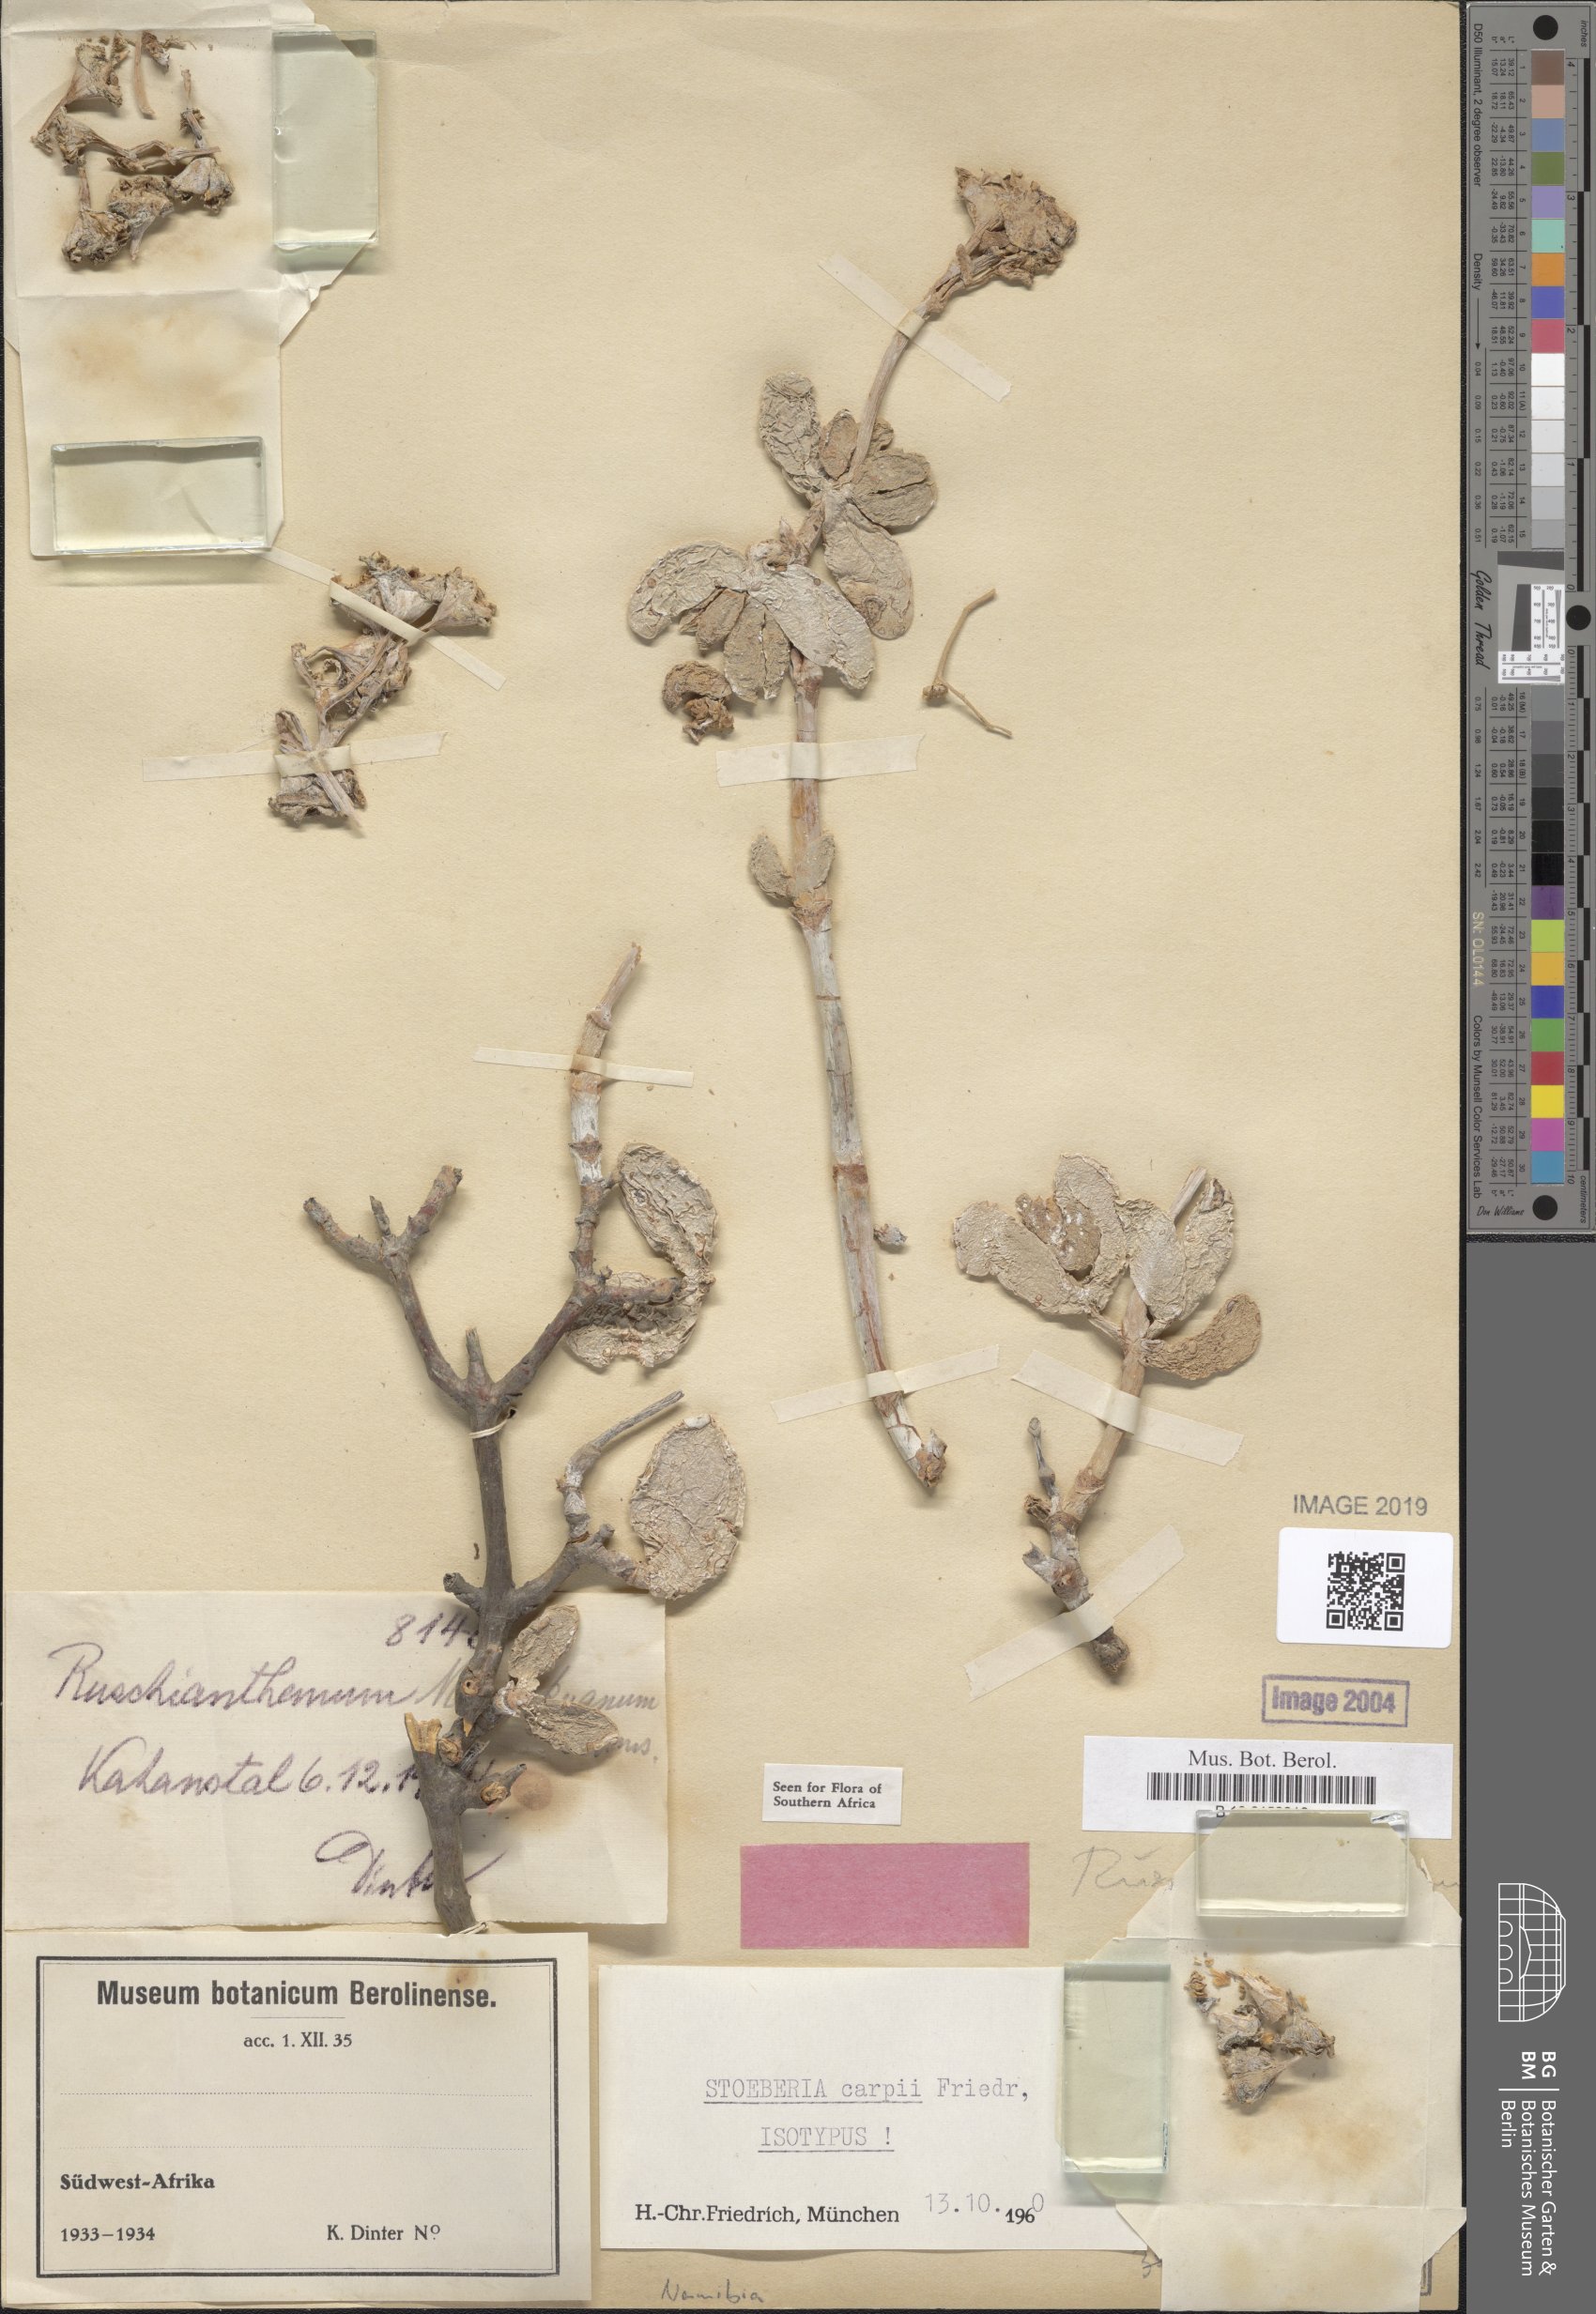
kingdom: Plantae
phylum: Tracheophyta
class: Magnoliopsida
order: Caryophyllales
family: Aizoaceae
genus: Stoeberia
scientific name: Stoeberia carpii
